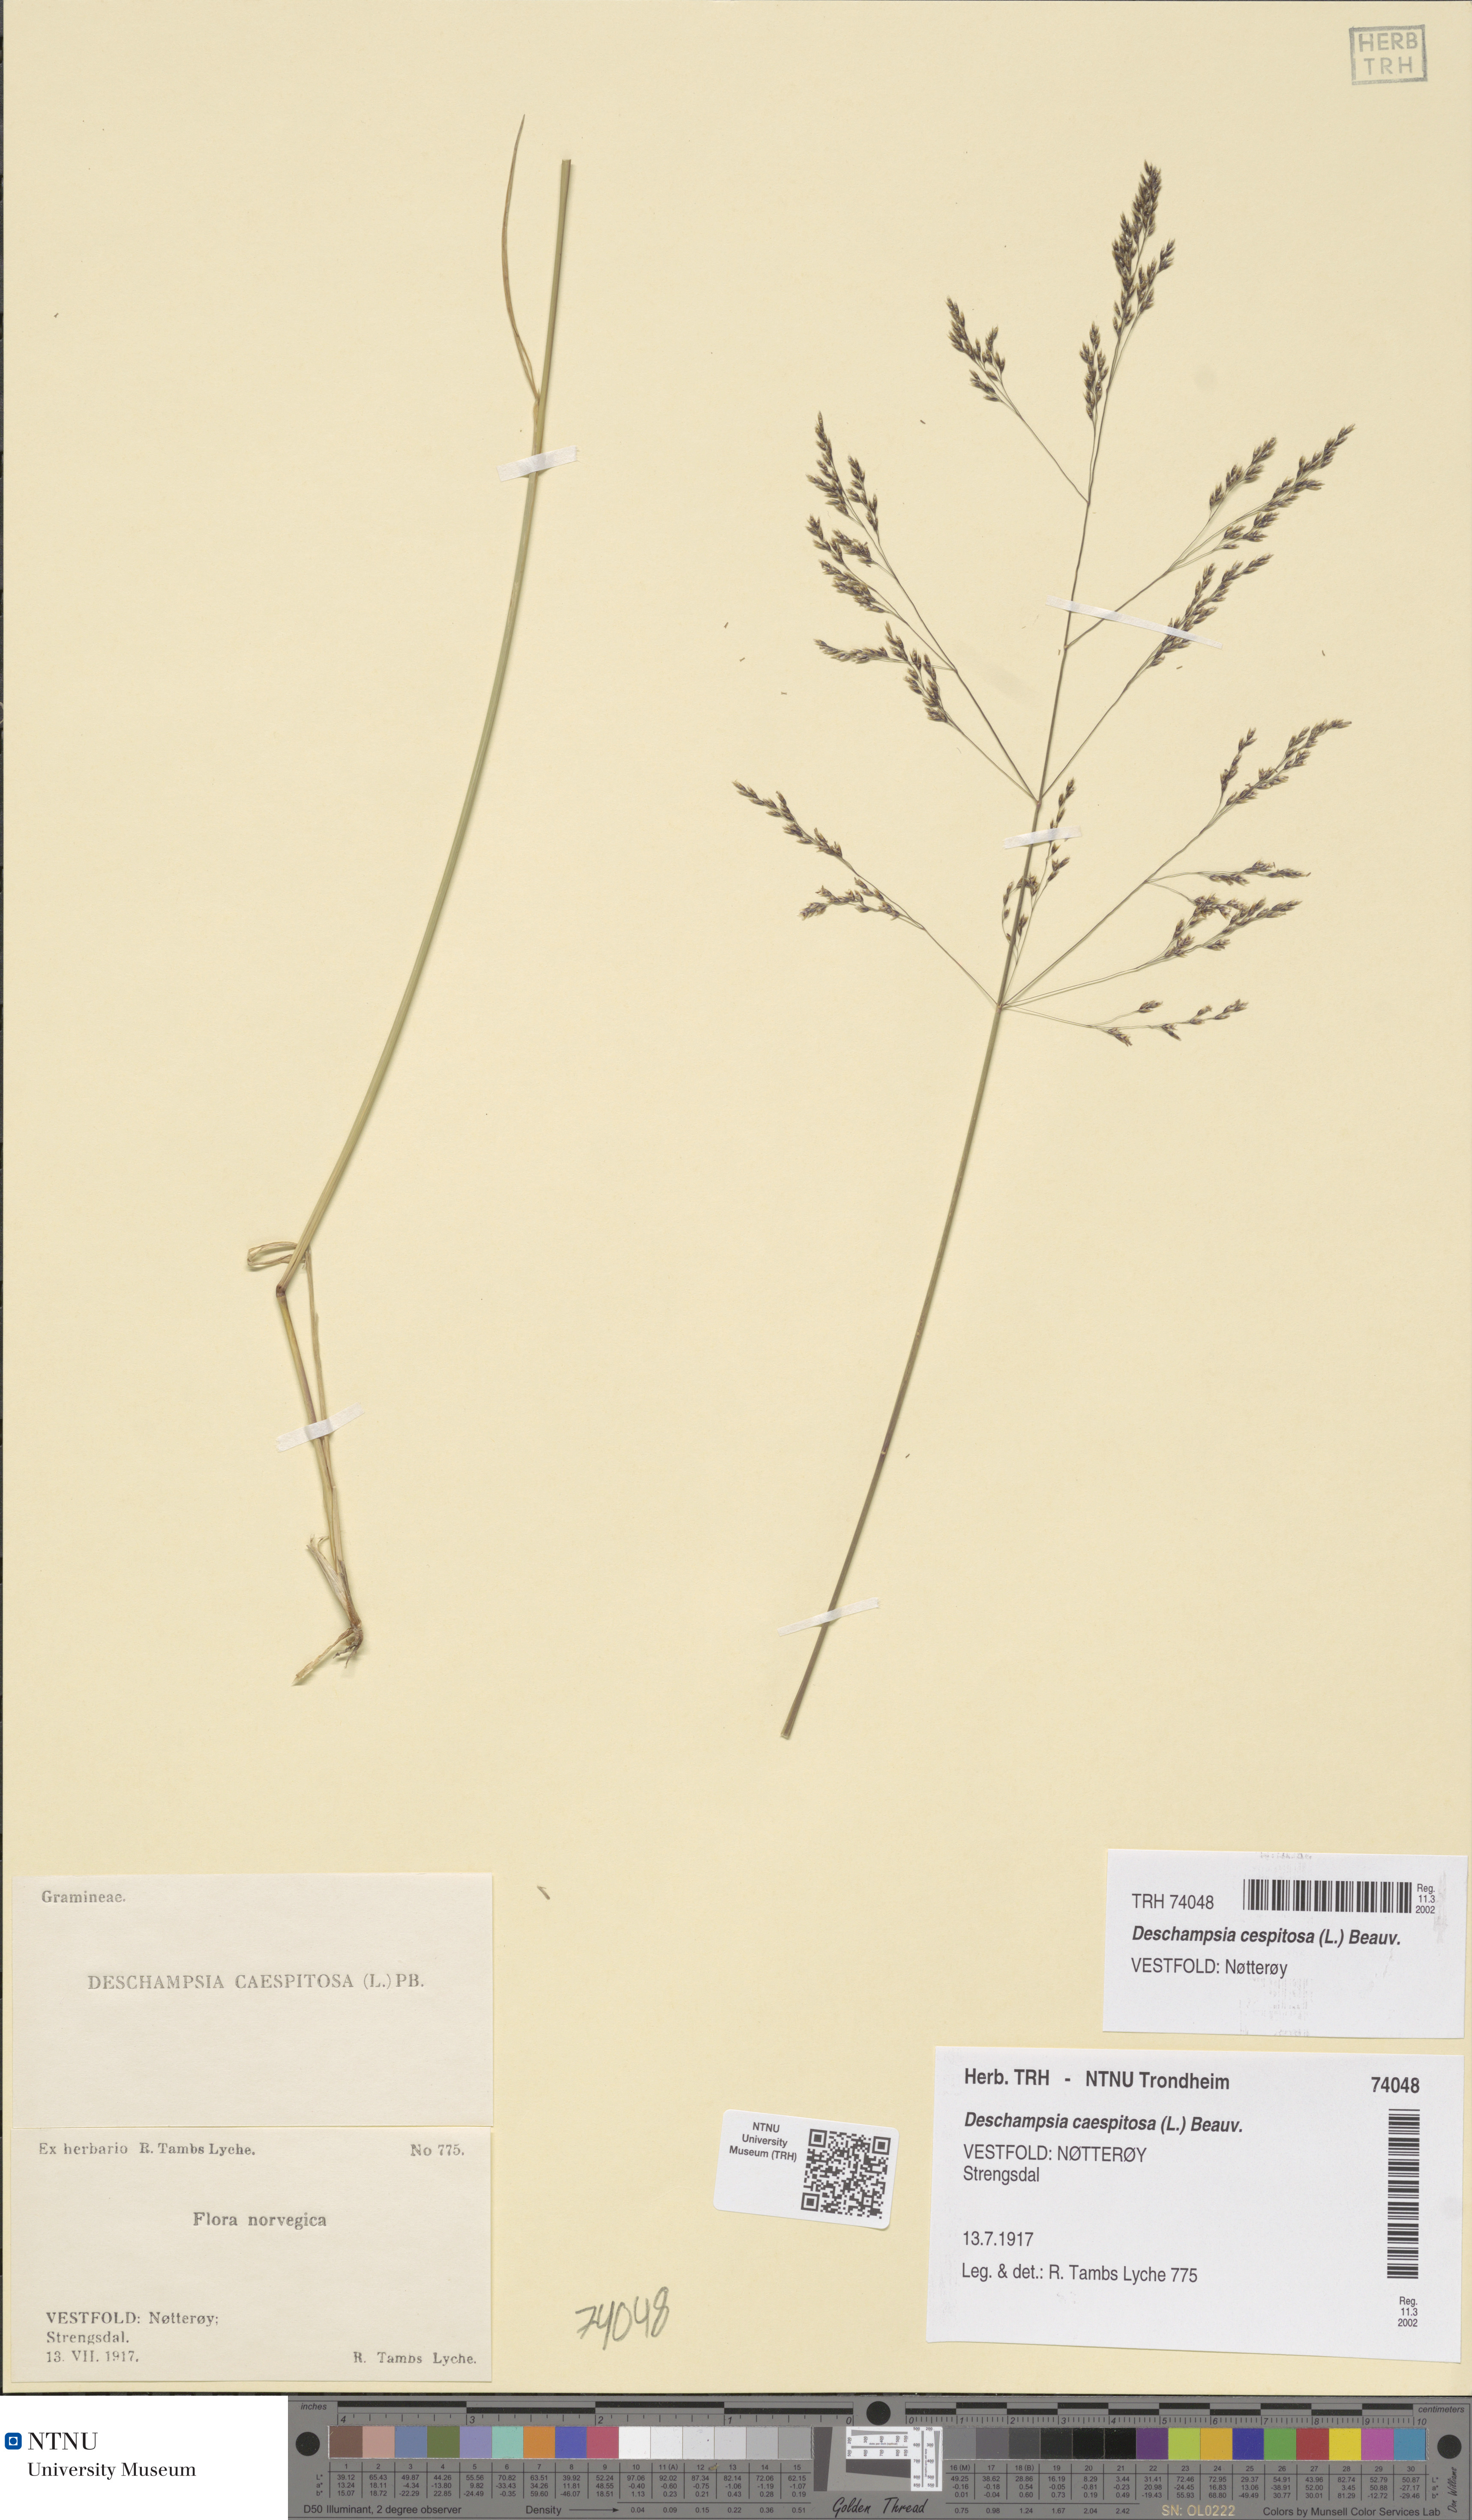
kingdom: Plantae
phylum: Tracheophyta
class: Liliopsida
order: Poales
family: Poaceae
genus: Deschampsia
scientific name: Deschampsia cespitosa
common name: Tufted hair-grass
